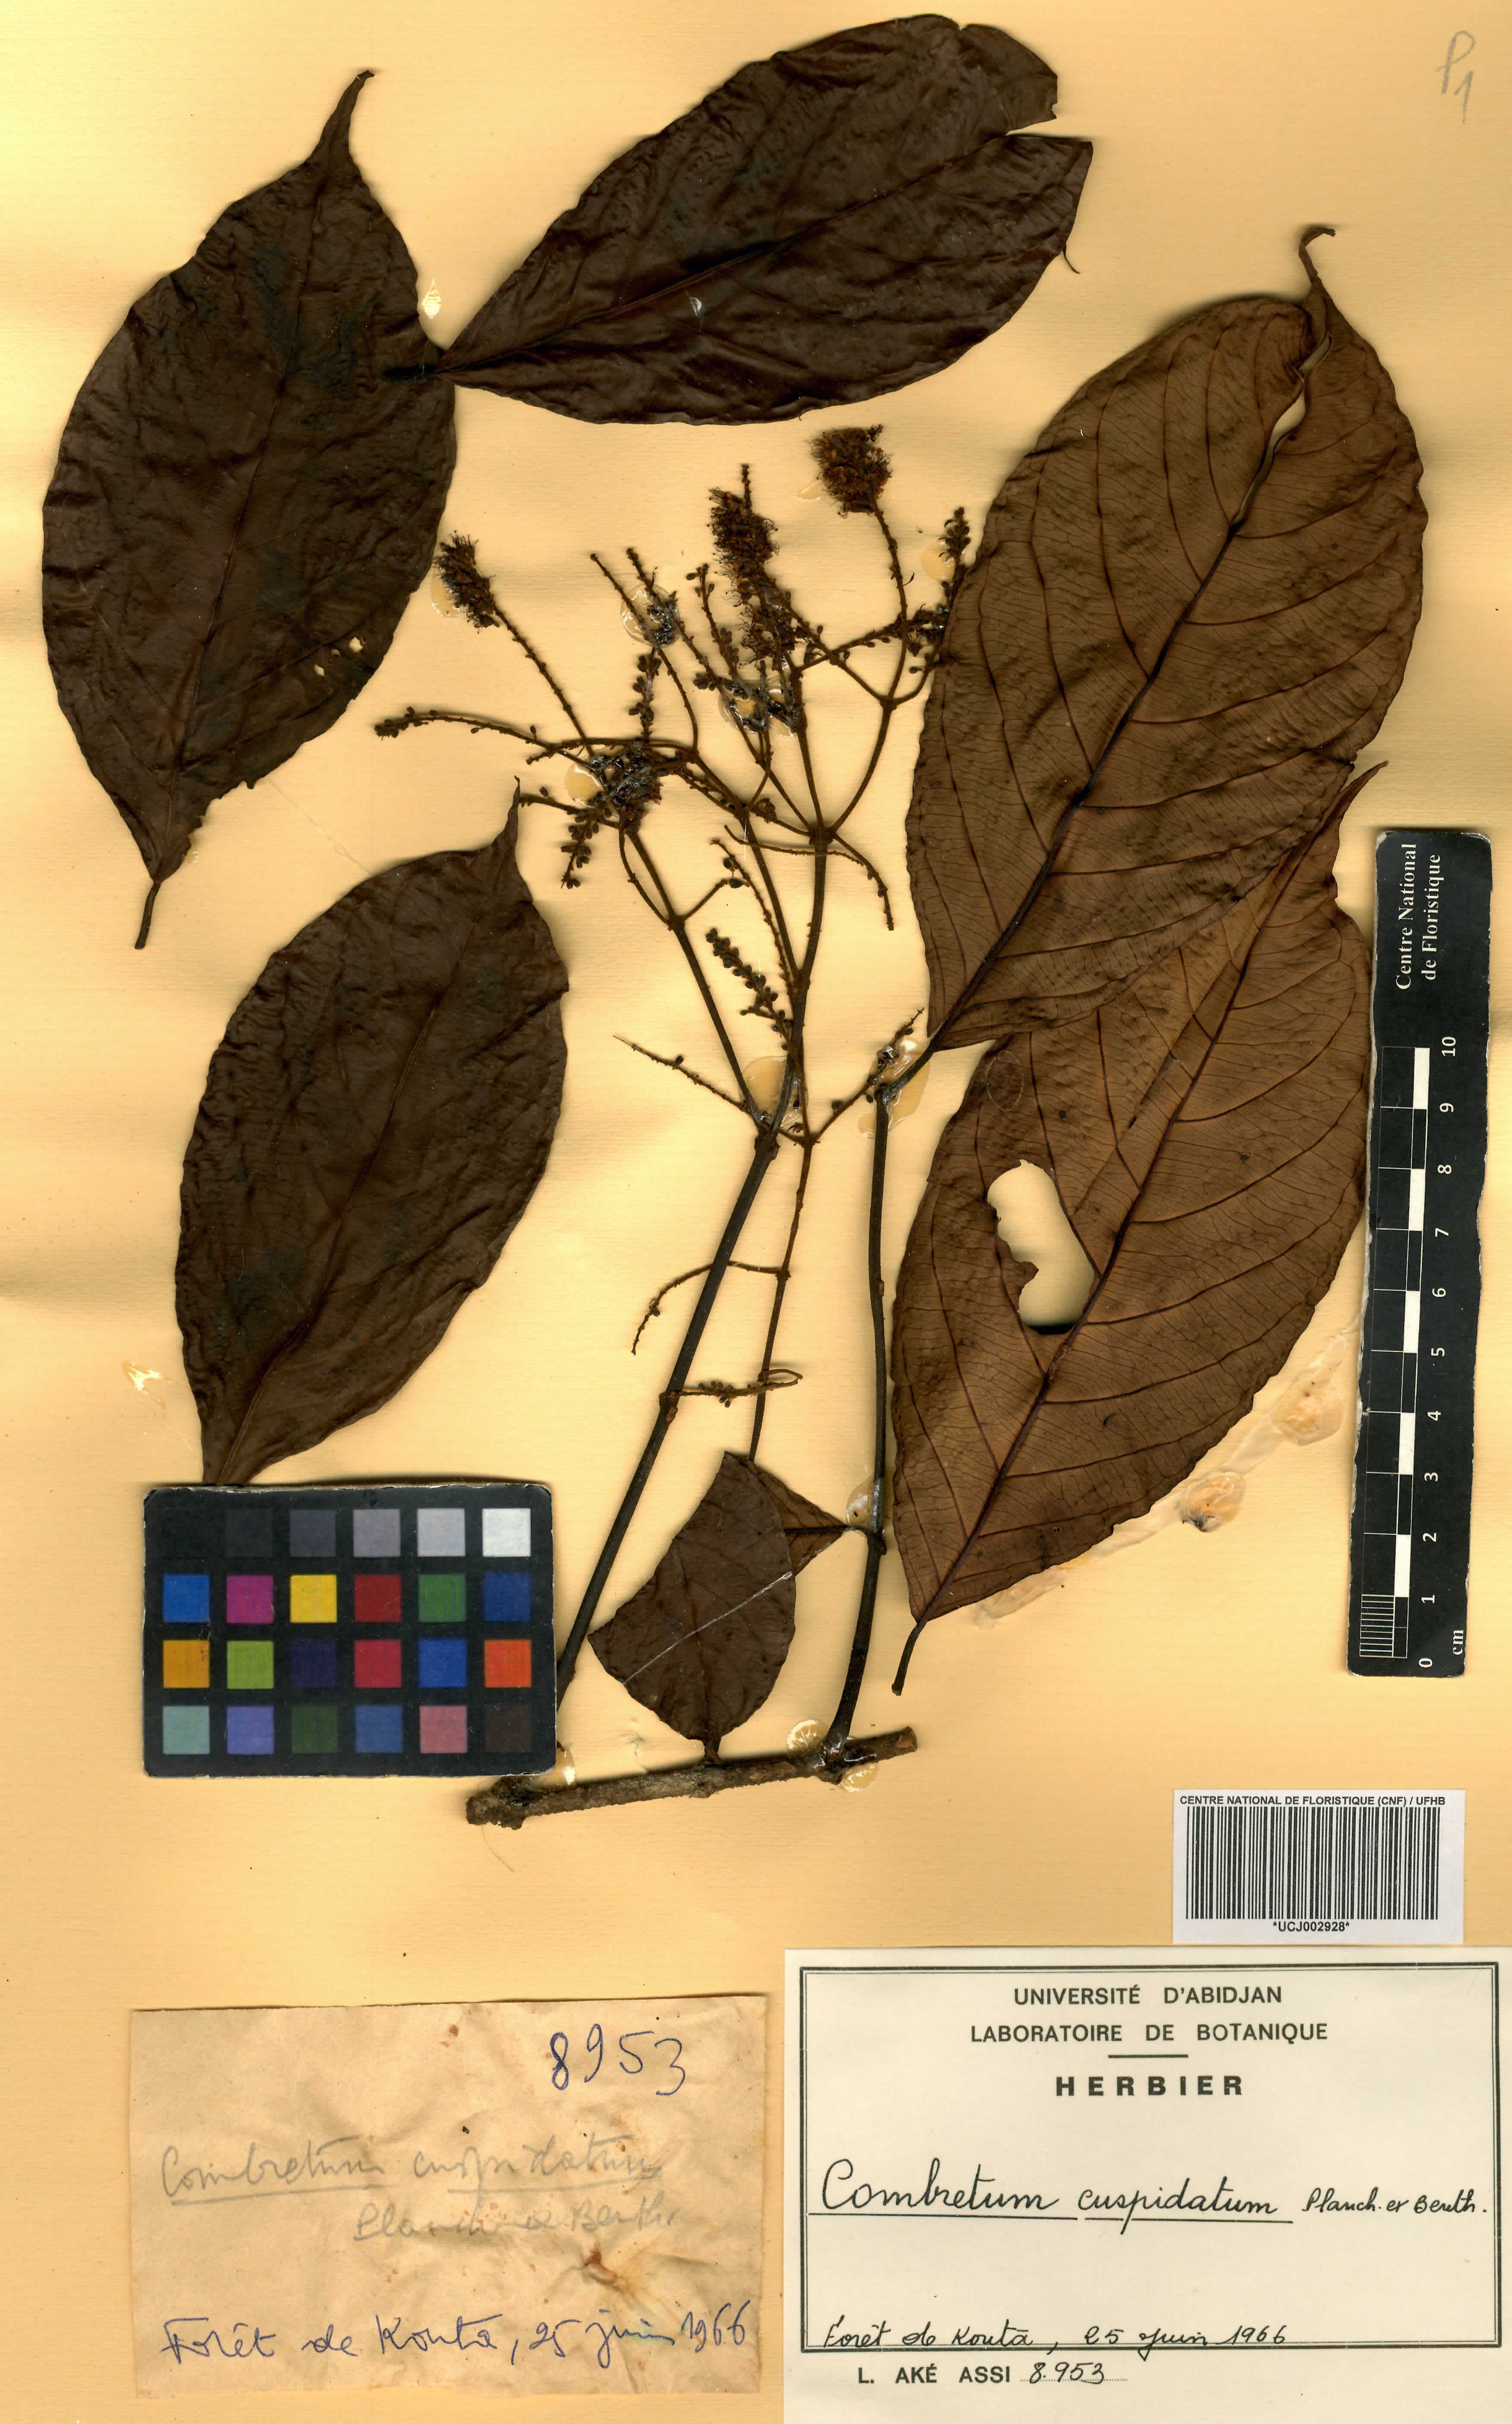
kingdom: Plantae
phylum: Tracheophyta
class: Magnoliopsida
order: Myrtales
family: Combretaceae
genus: Combretum
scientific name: Combretum cuspidatum
